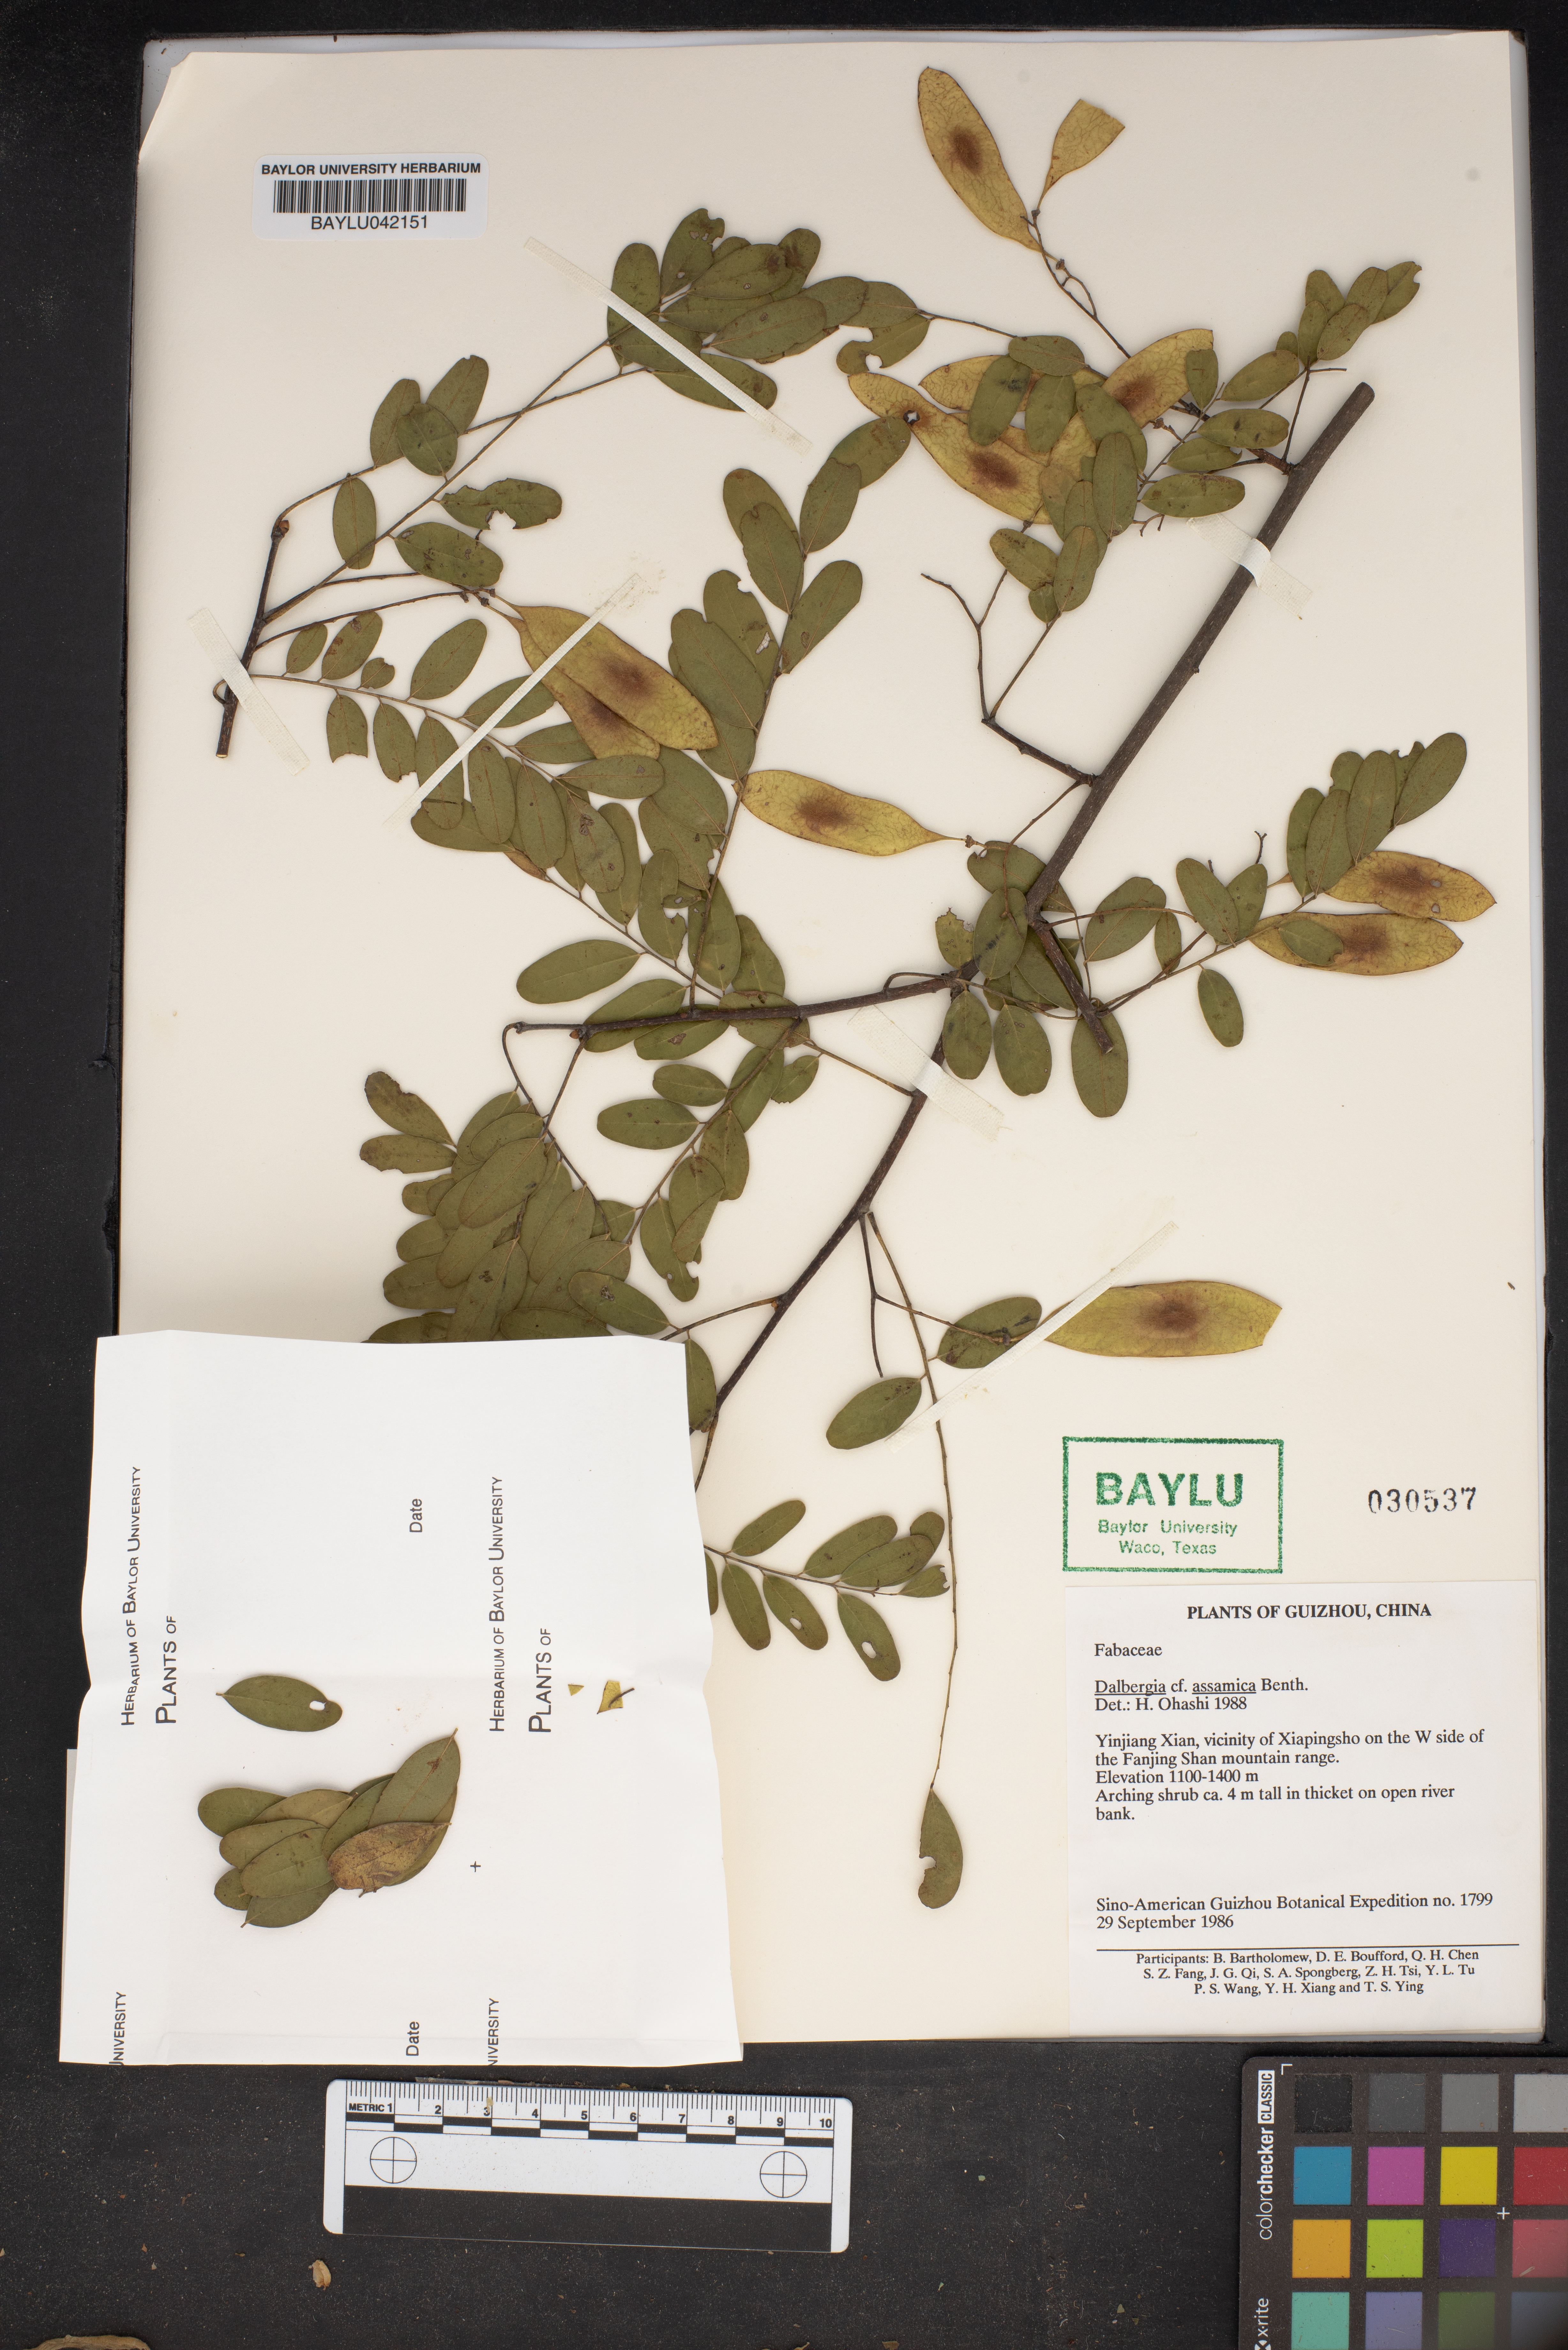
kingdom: Plantae
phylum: Tracheophyta
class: Magnoliopsida
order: Lamiales
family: Gesneriaceae
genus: Columnea
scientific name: Columnea
